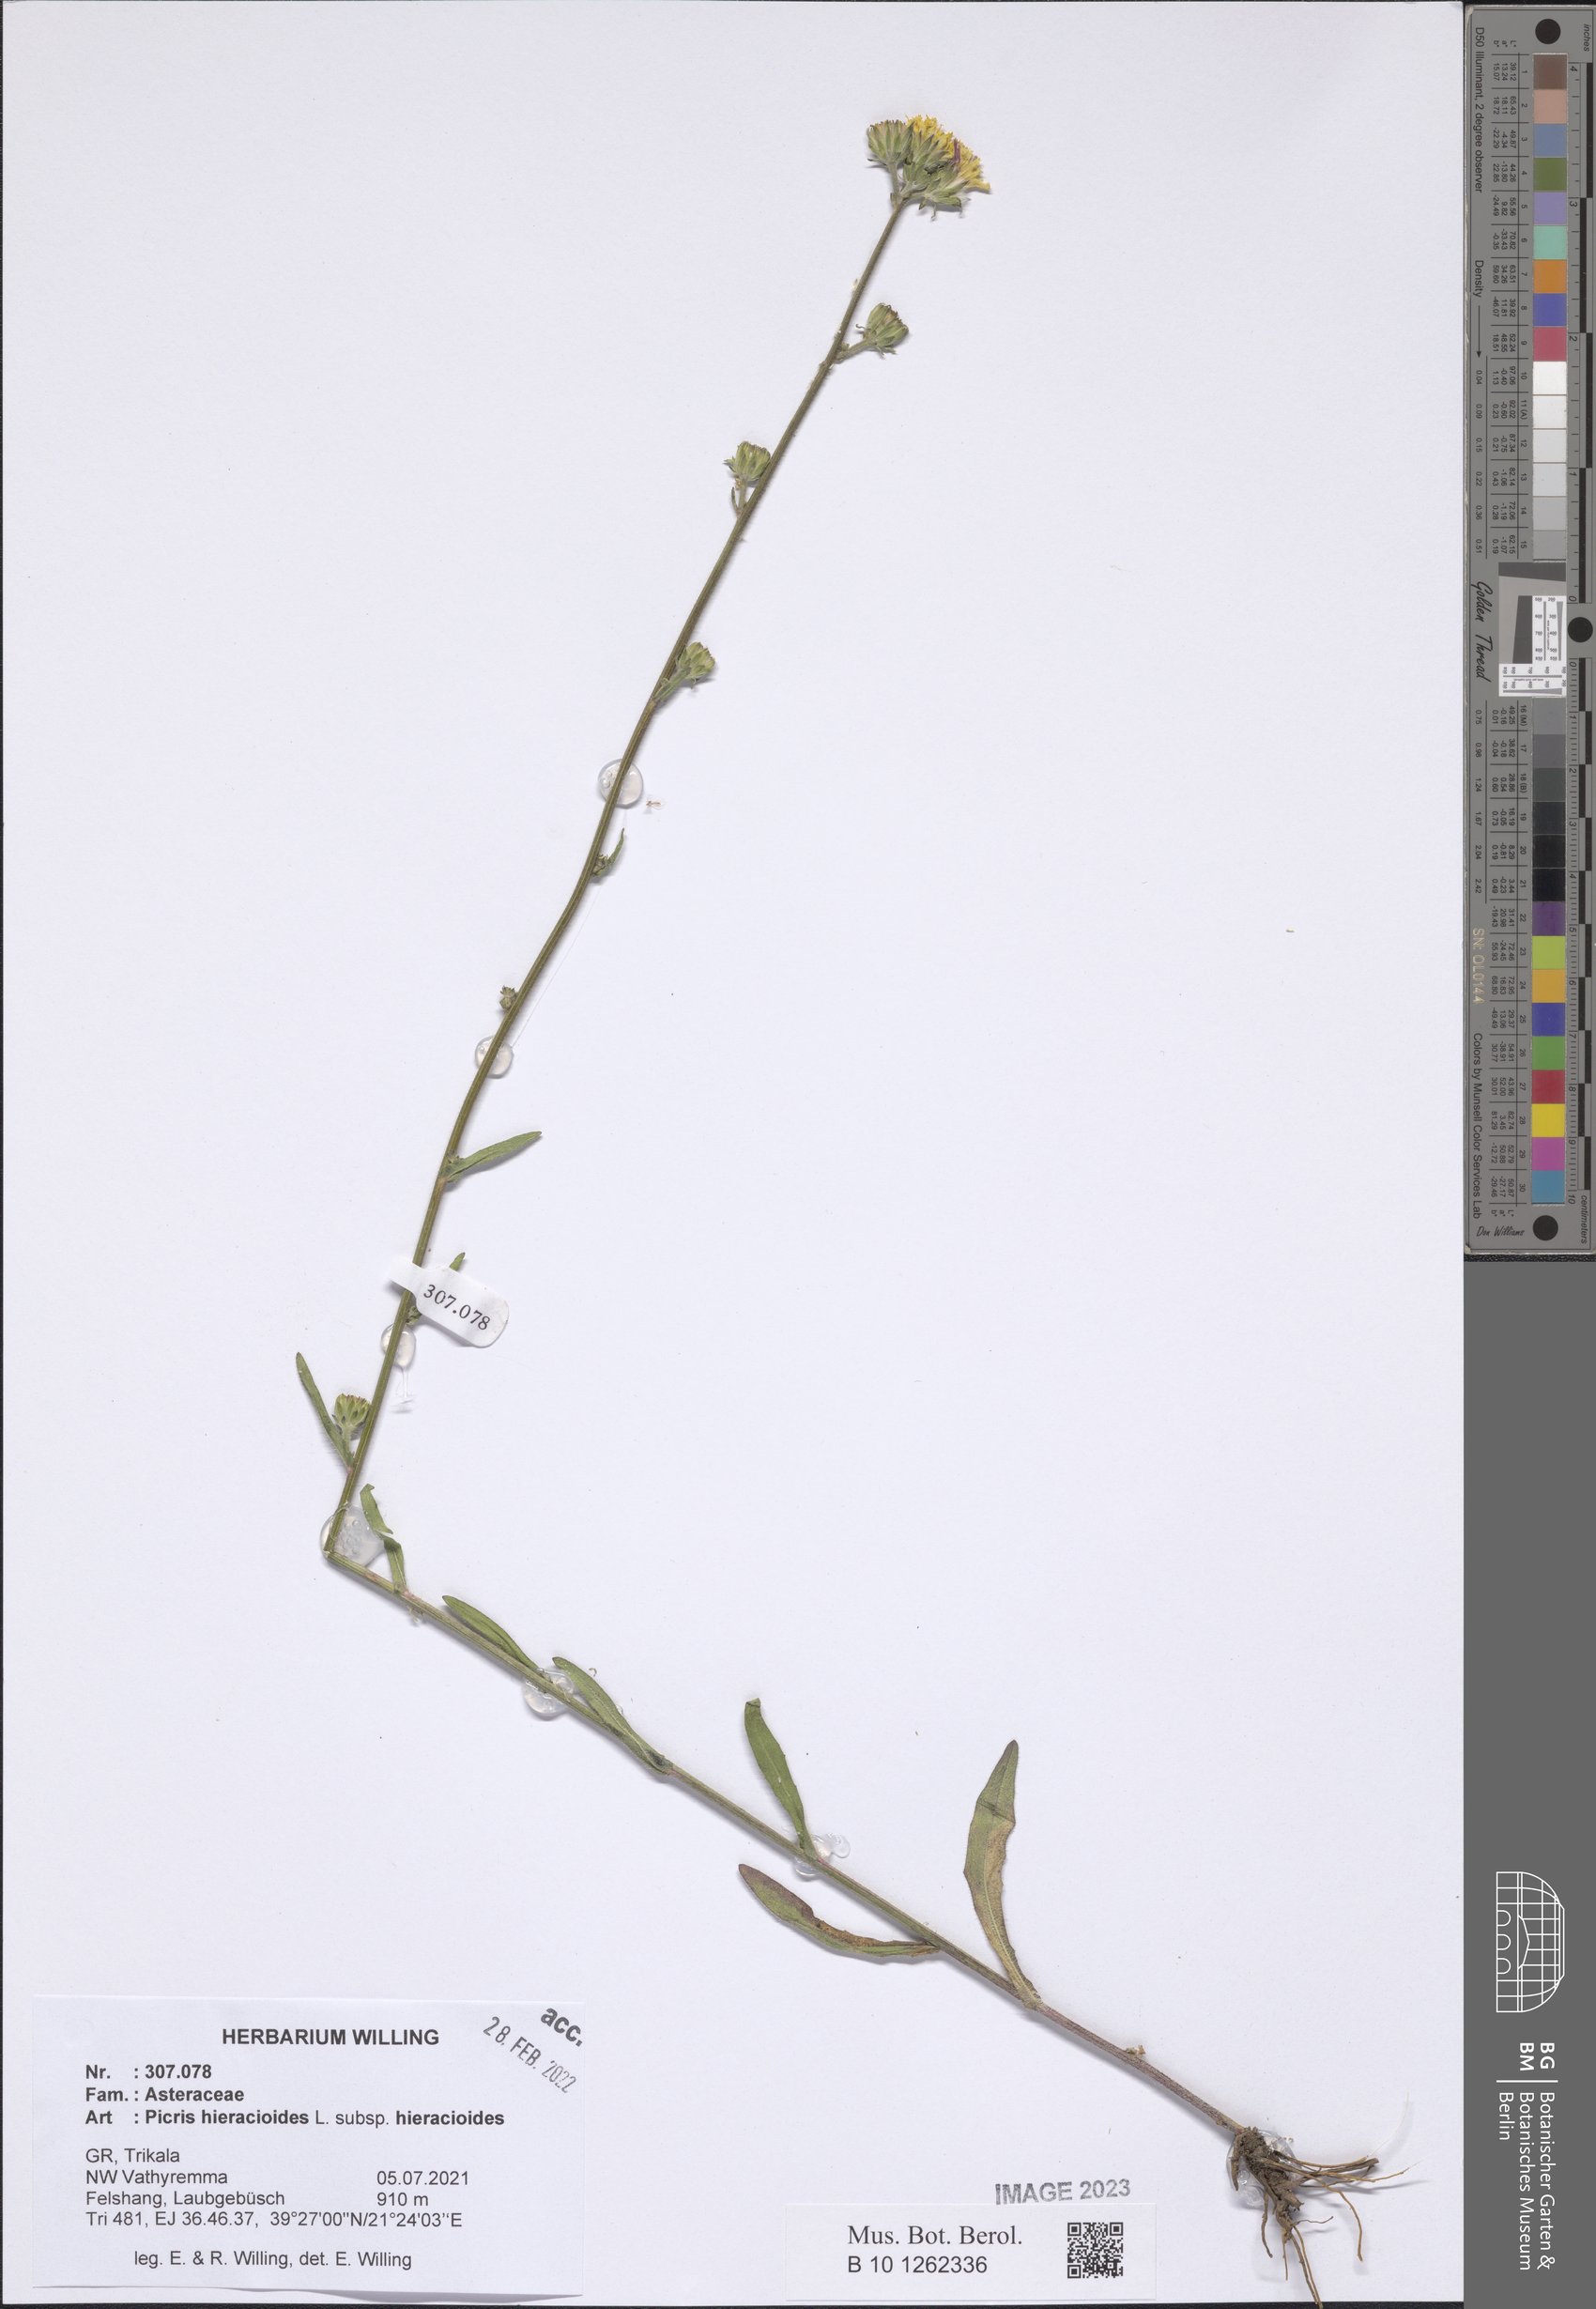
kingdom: Plantae
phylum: Tracheophyta
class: Magnoliopsida
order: Asterales
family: Asteraceae
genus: Picris
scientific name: Picris hieracioides
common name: Hawkweed oxtongue
